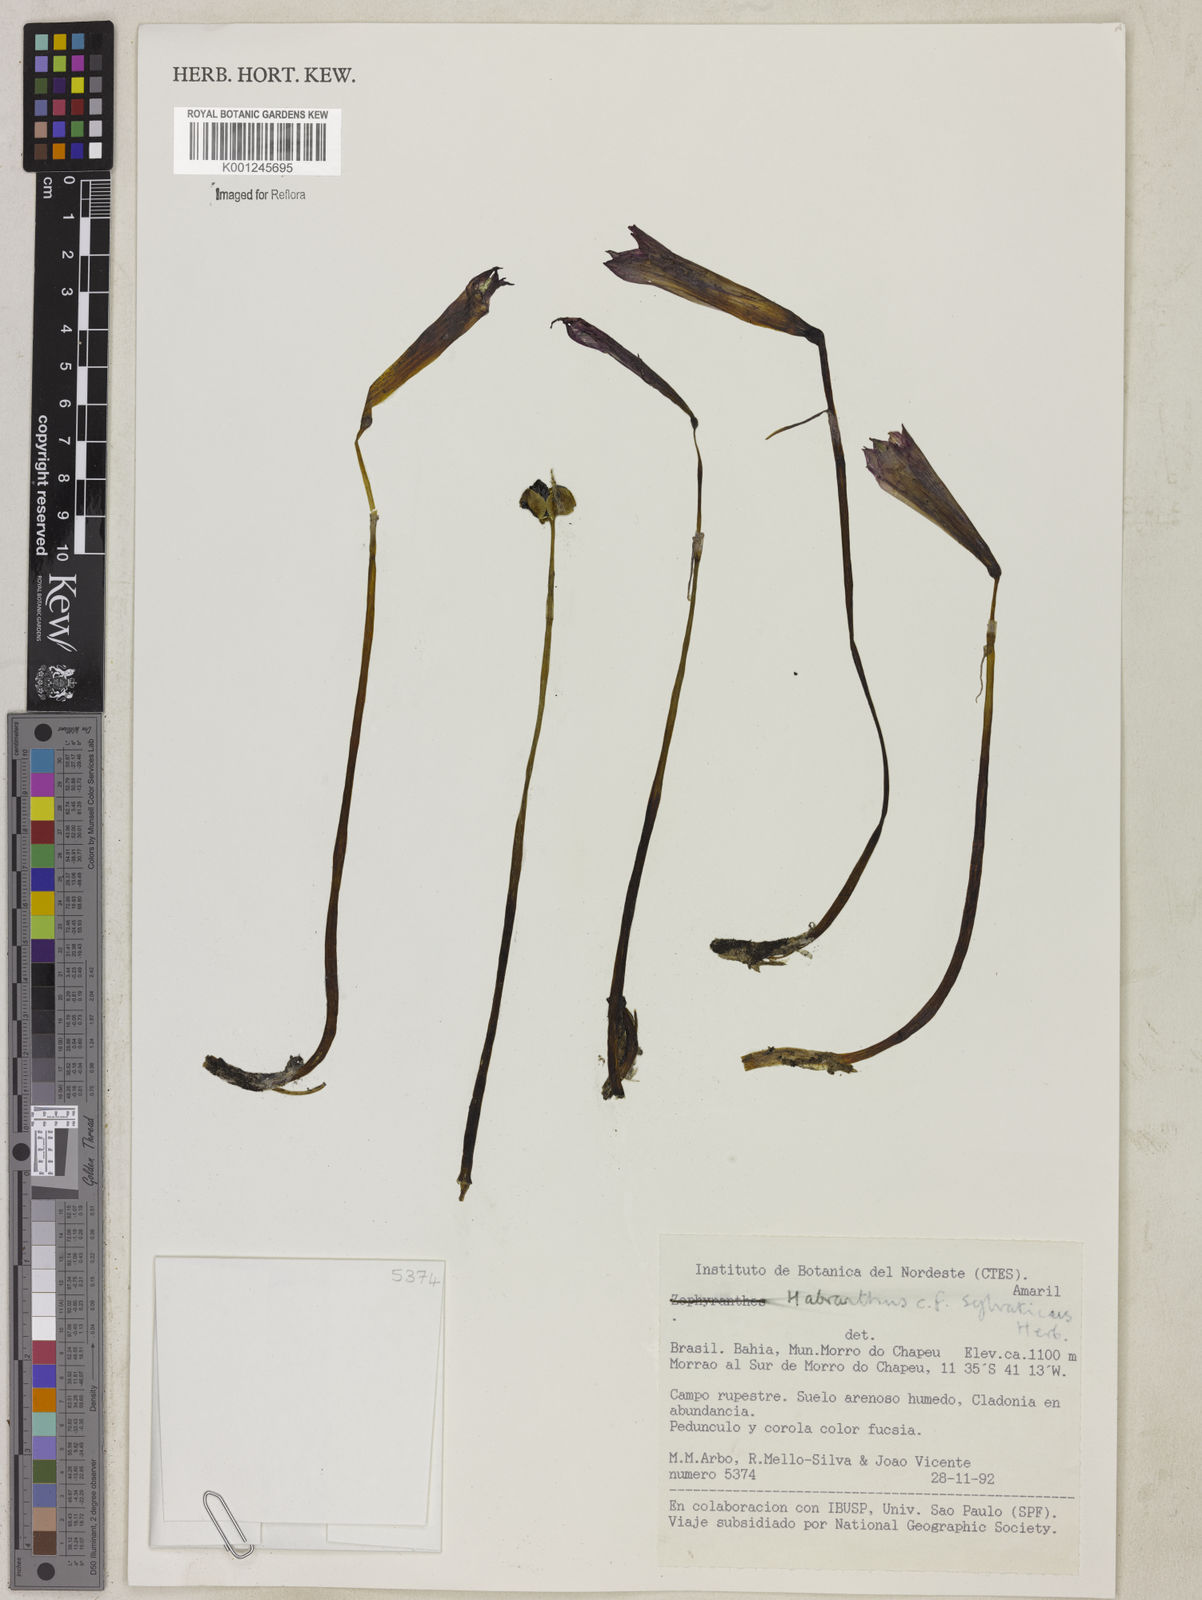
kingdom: Plantae
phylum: Tracheophyta
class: Liliopsida
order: Asparagales
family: Amaryllidaceae
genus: Zephyranthes
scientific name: Zephyranthes sylvatica
